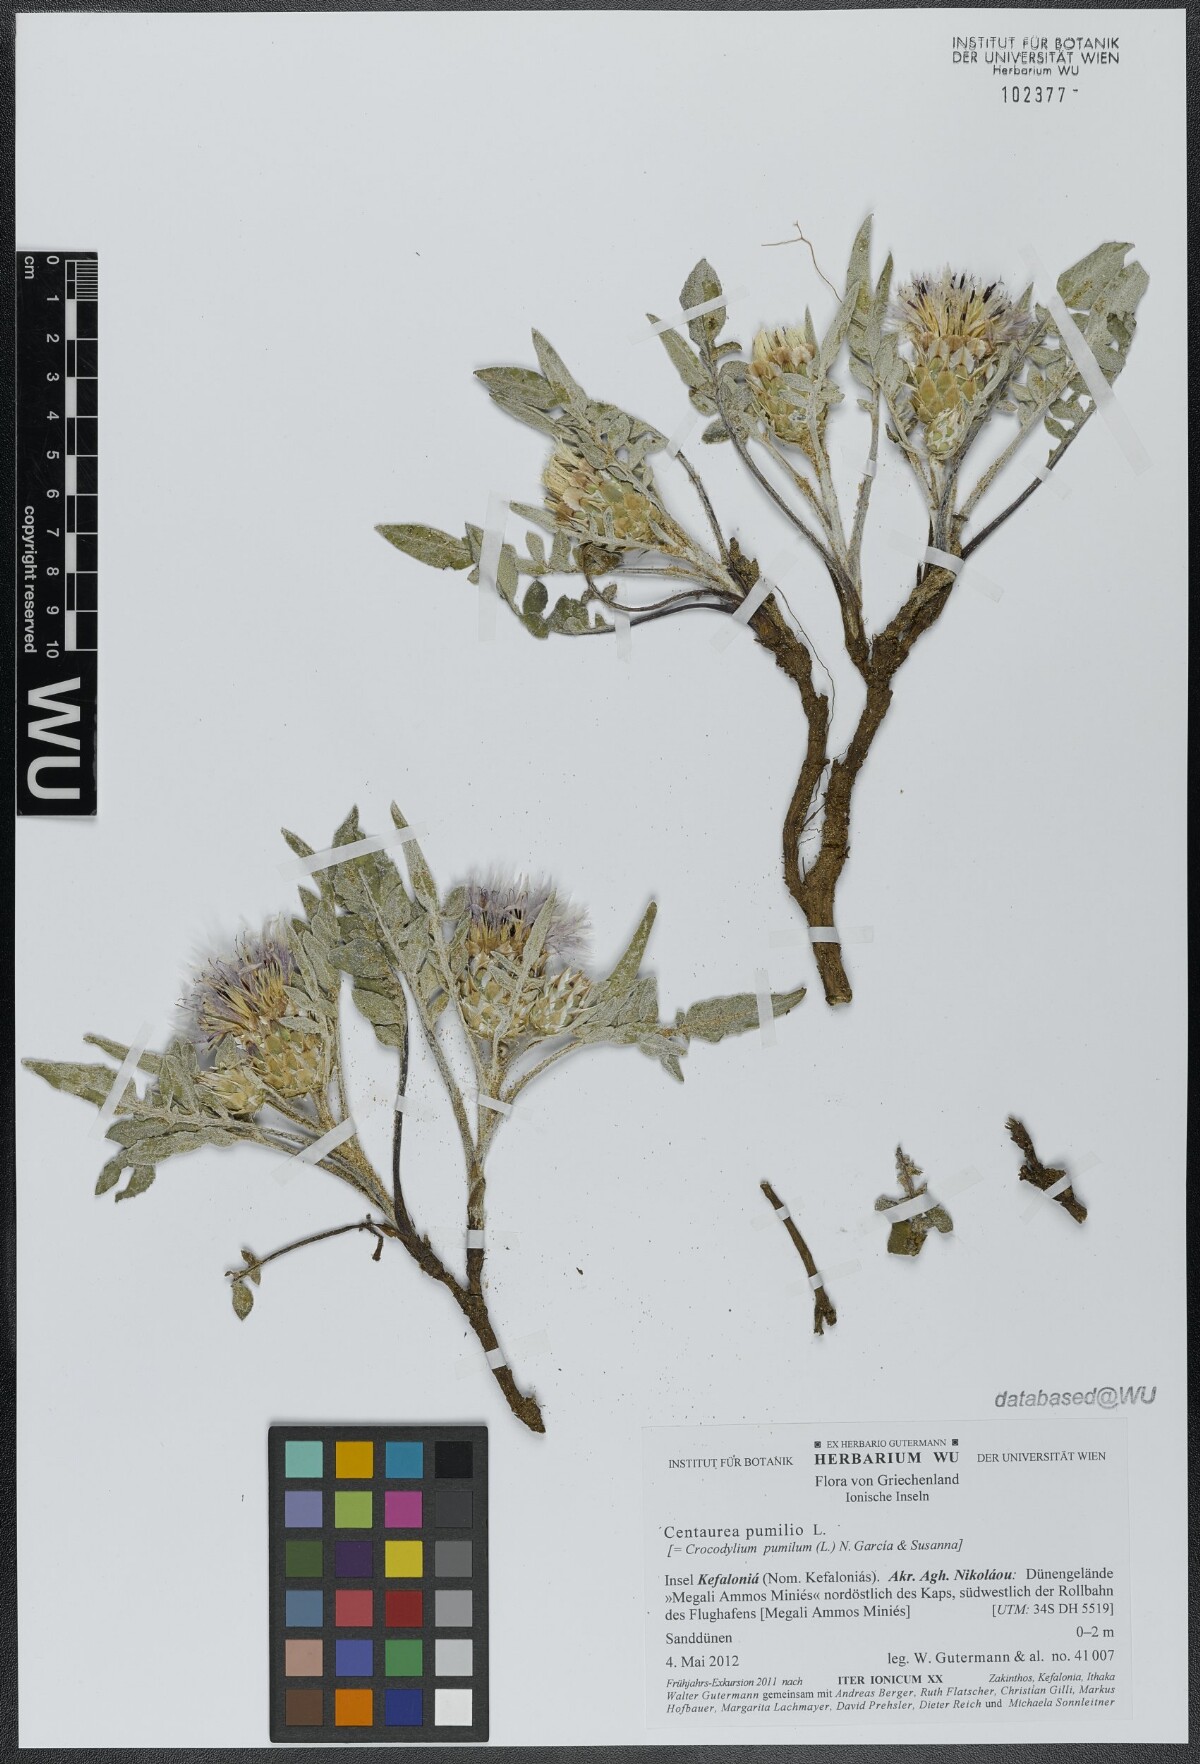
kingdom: Plantae
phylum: Tracheophyta
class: Magnoliopsida
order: Asterales
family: Asteraceae
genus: Crocodilium
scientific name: Crocodilium pumilio
